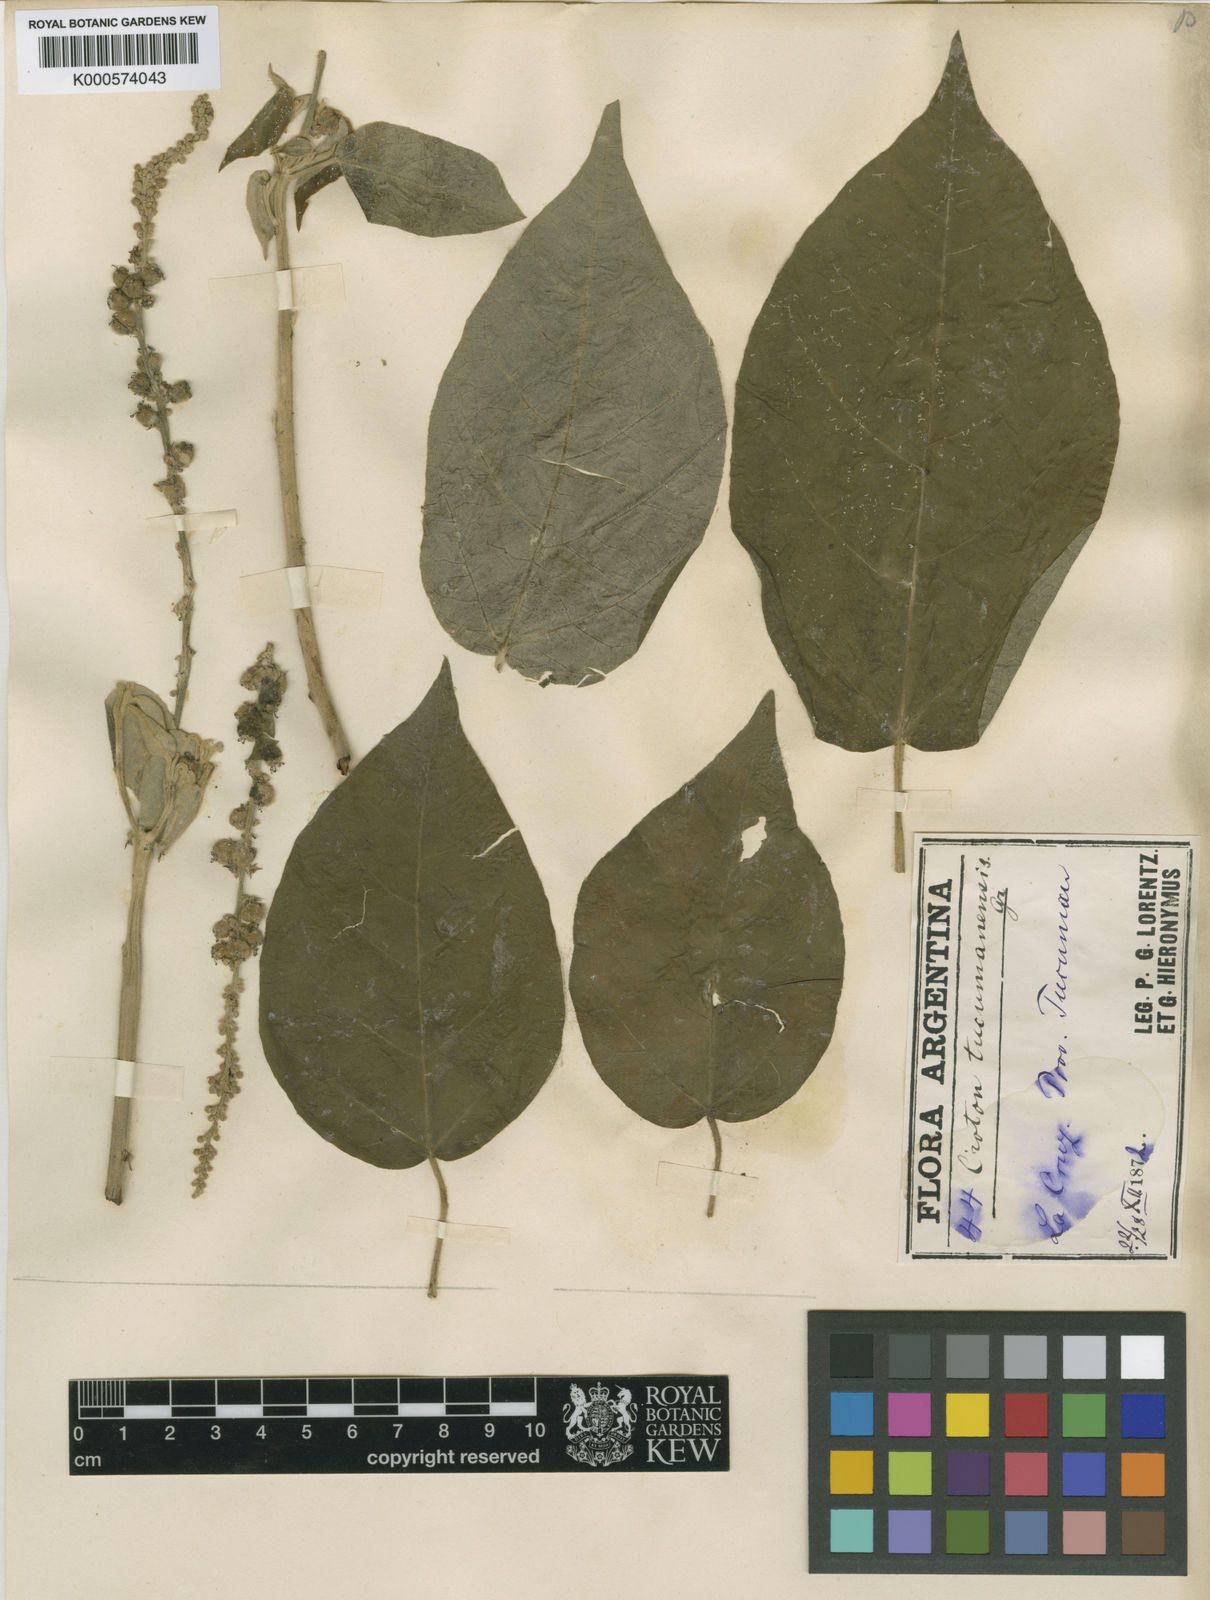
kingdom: Plantae
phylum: Tracheophyta
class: Magnoliopsida
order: Malpighiales
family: Euphorbiaceae
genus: Croton
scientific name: Croton lachnostachyus
